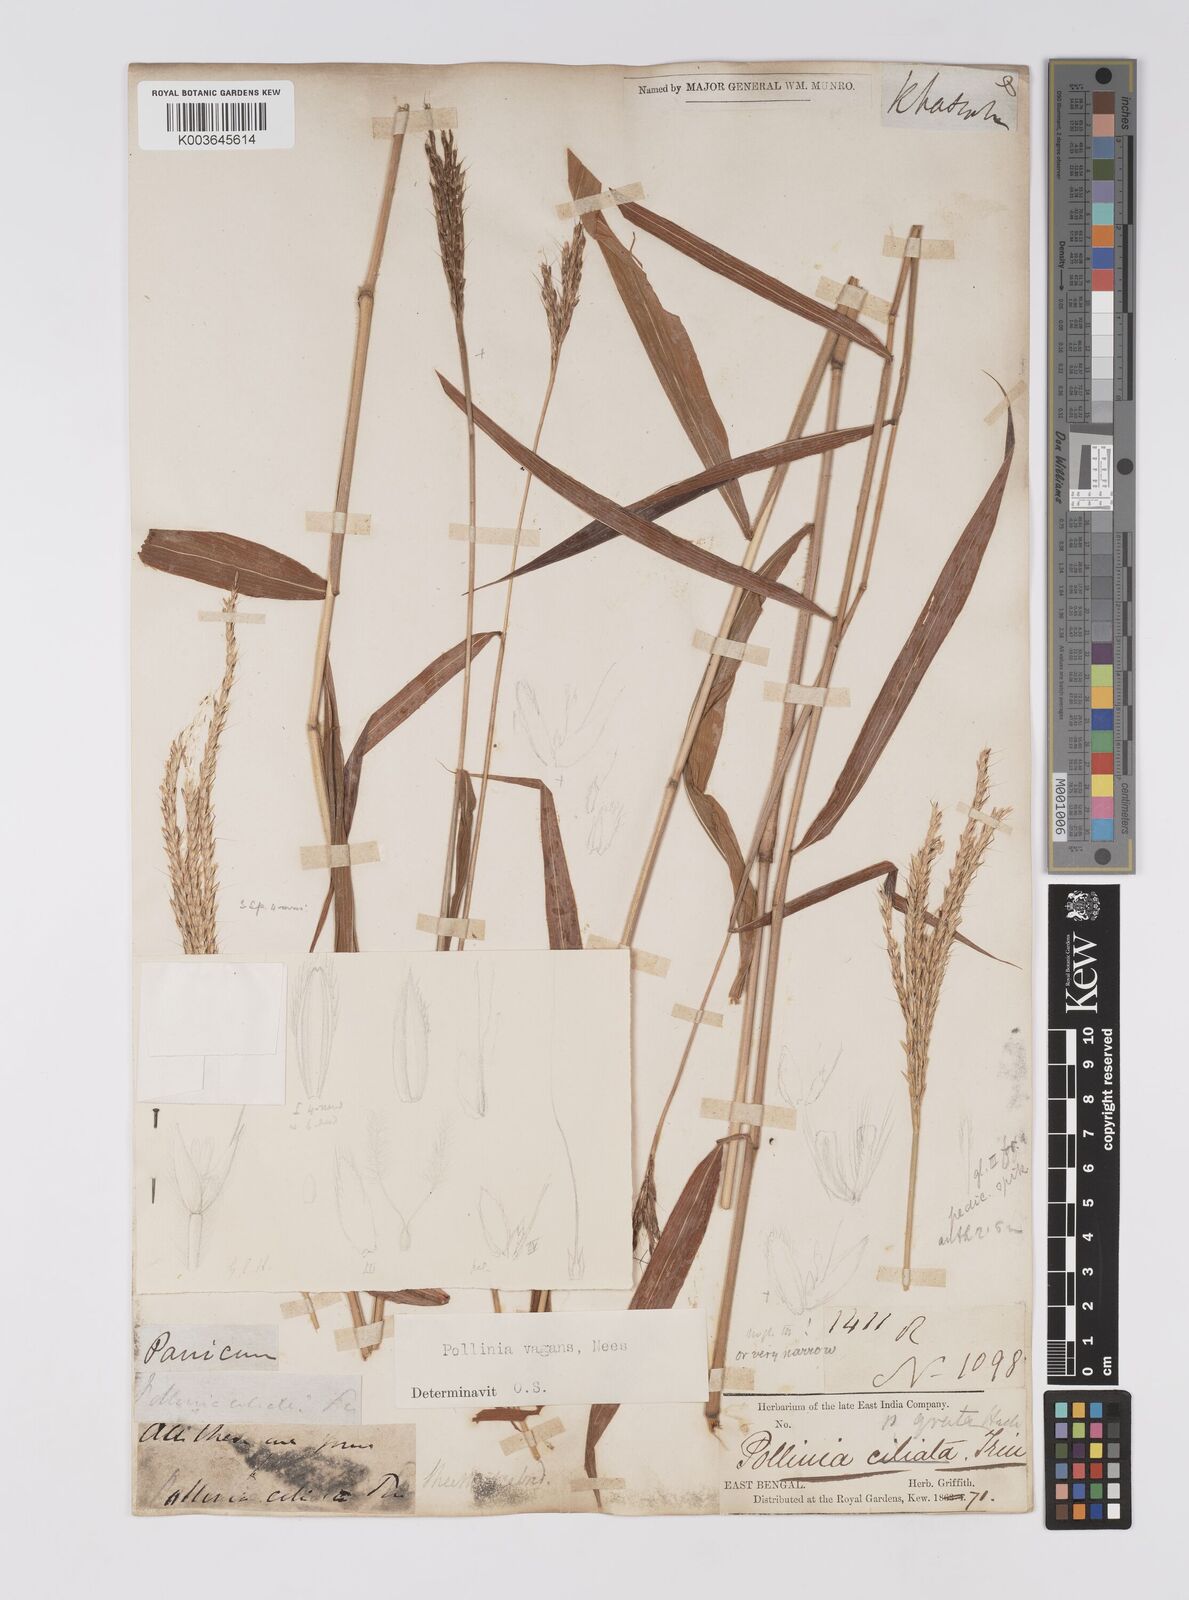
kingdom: Plantae
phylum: Tracheophyta
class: Liliopsida
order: Poales
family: Poaceae
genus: Microstegium
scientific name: Microstegium fasciculatum
